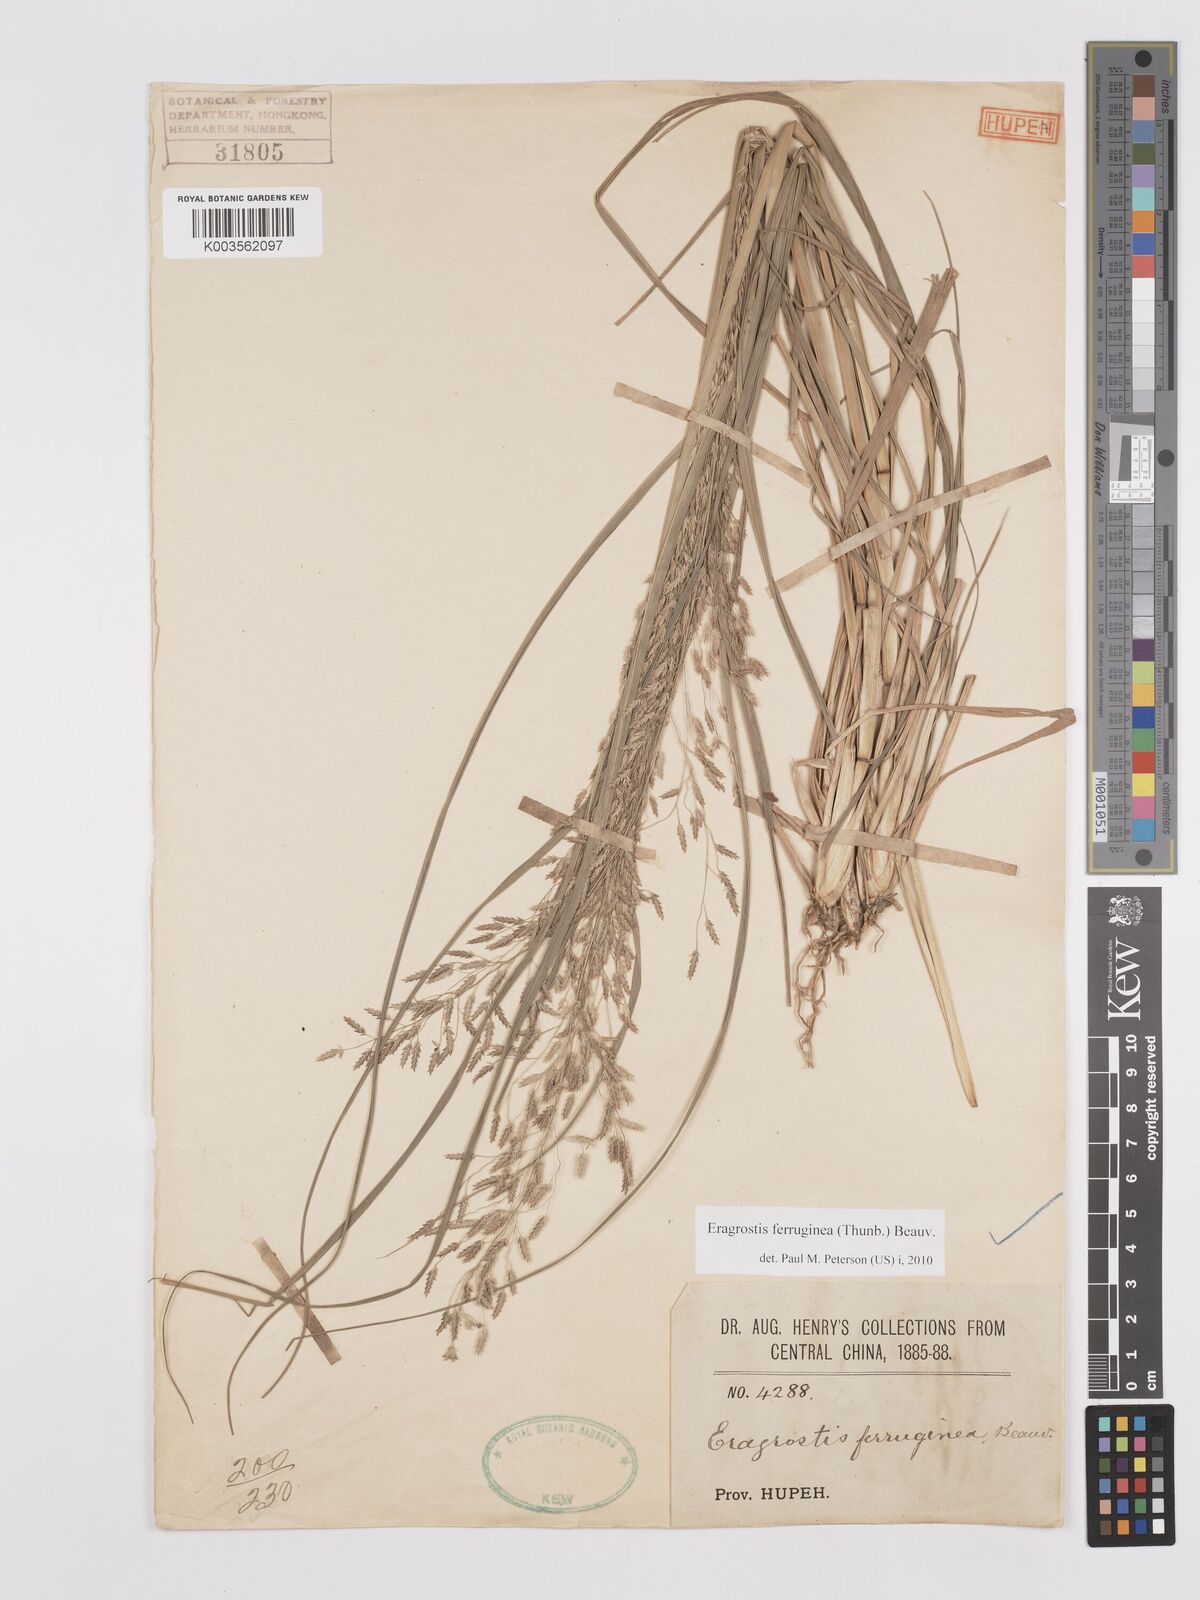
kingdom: Plantae
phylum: Tracheophyta
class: Liliopsida
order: Poales
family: Poaceae
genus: Eragrostis
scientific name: Eragrostis ferruginea
